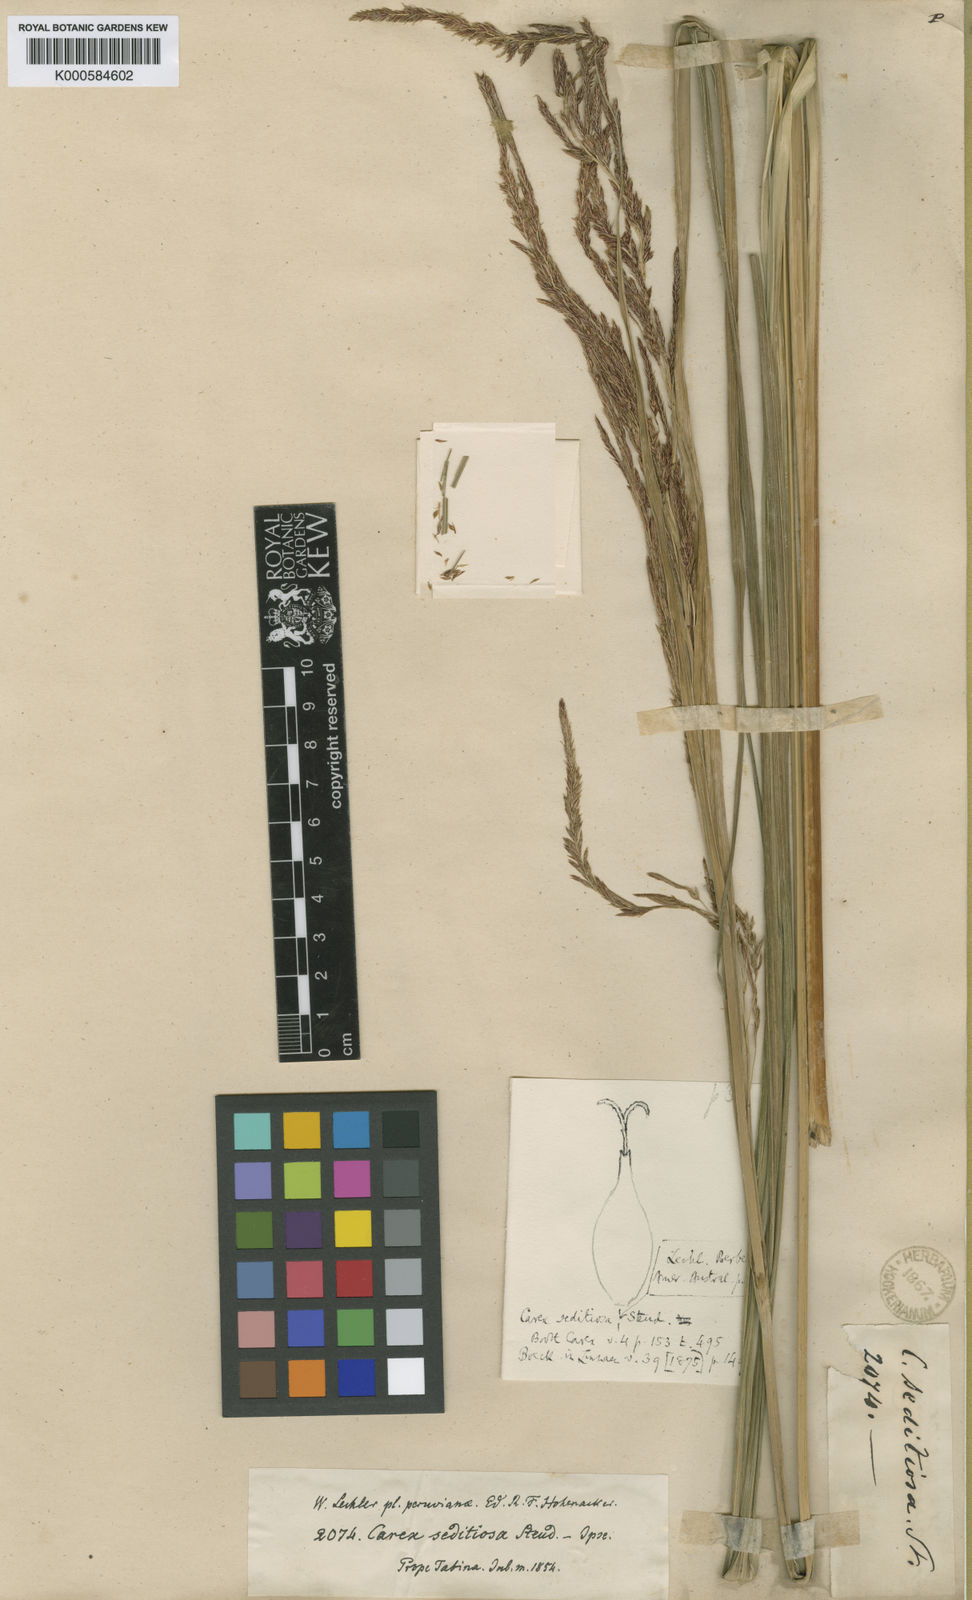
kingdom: Plantae
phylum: Tracheophyta
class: Liliopsida
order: Poales
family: Cyperaceae
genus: Carex
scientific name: Carex fecunda
